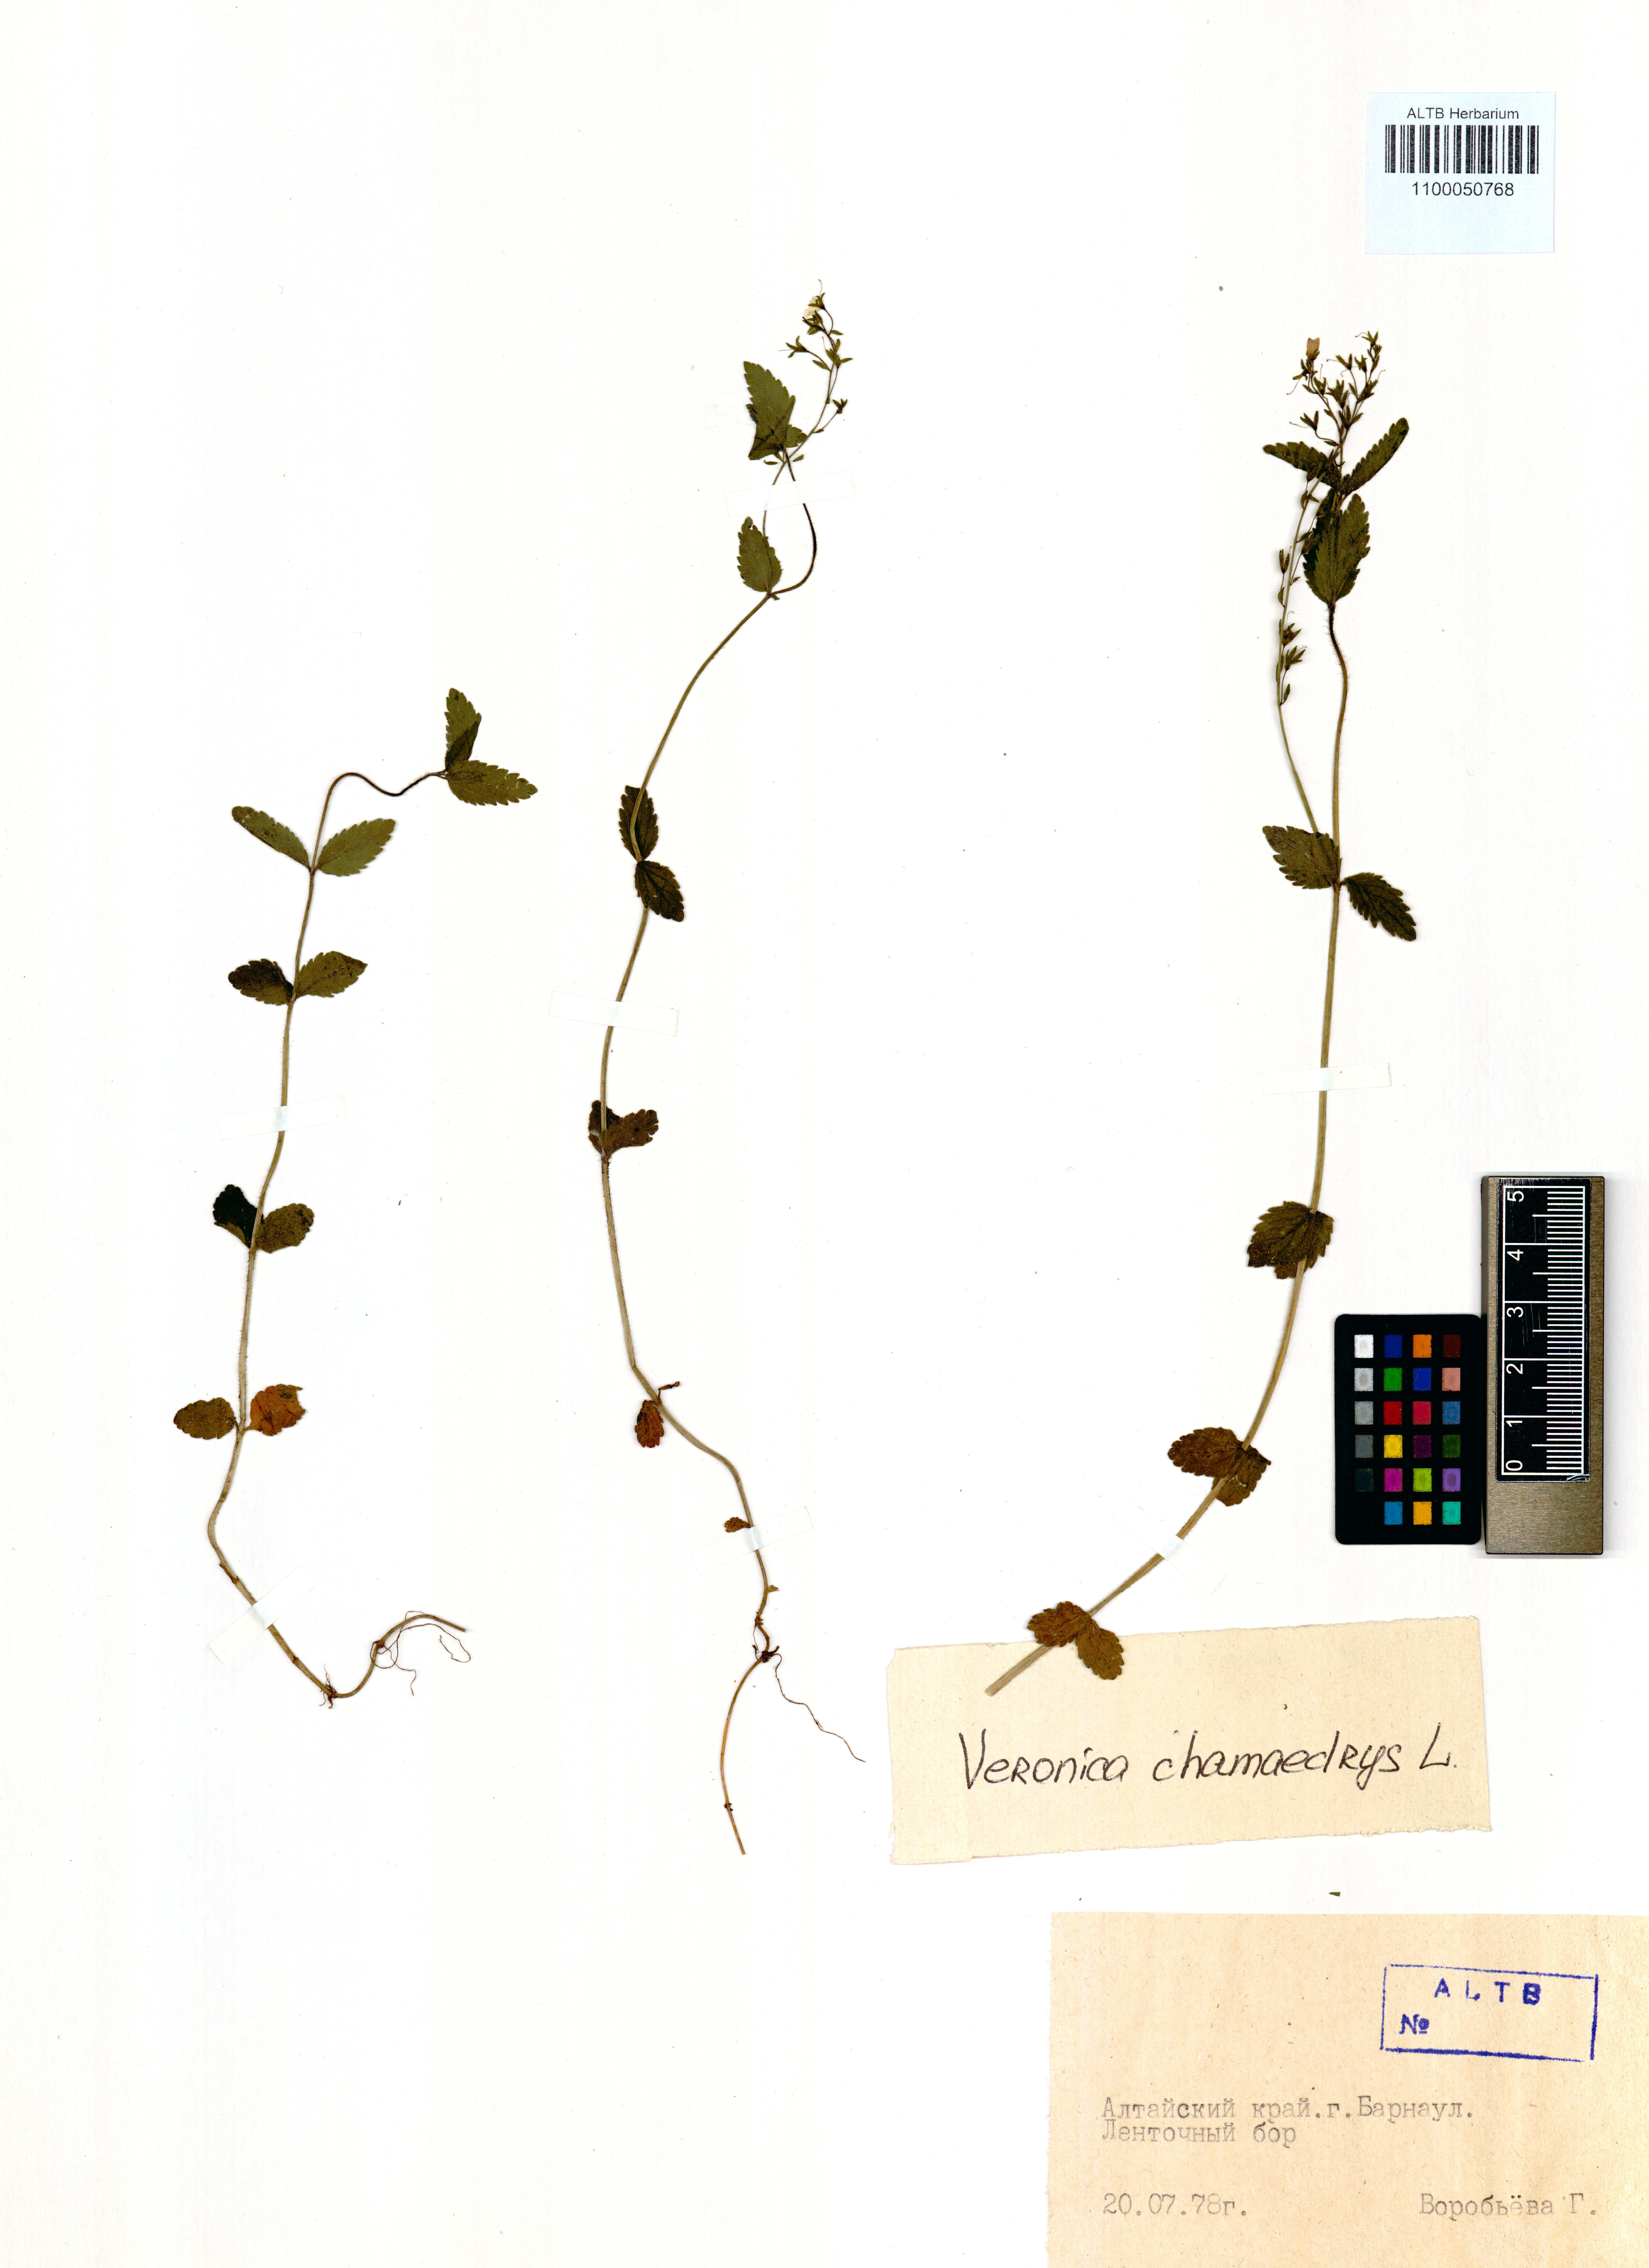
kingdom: Plantae
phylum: Tracheophyta
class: Magnoliopsida
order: Lamiales
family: Plantaginaceae
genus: Veronica
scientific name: Veronica chamaedrys
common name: Germander speedwell
